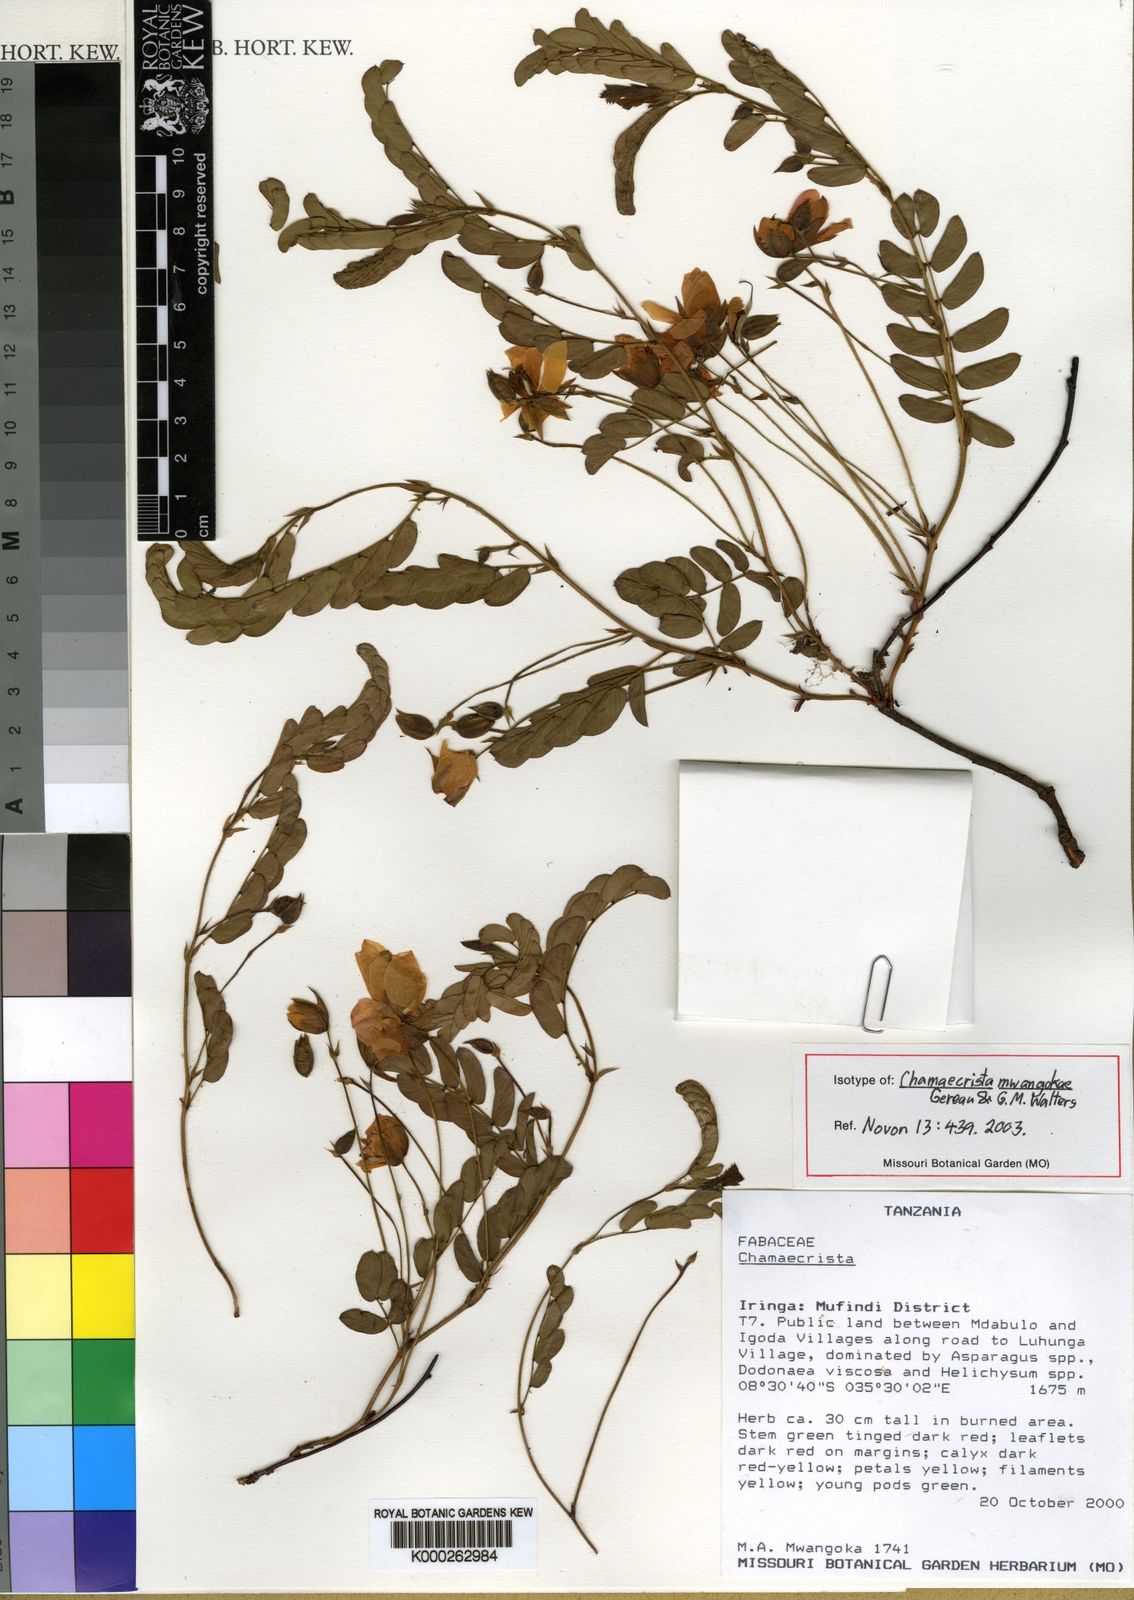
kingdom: Plantae
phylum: Tracheophyta
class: Magnoliopsida
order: Fabales
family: Fabaceae
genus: Chamaecrista
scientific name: Chamaecrista mwangokae
